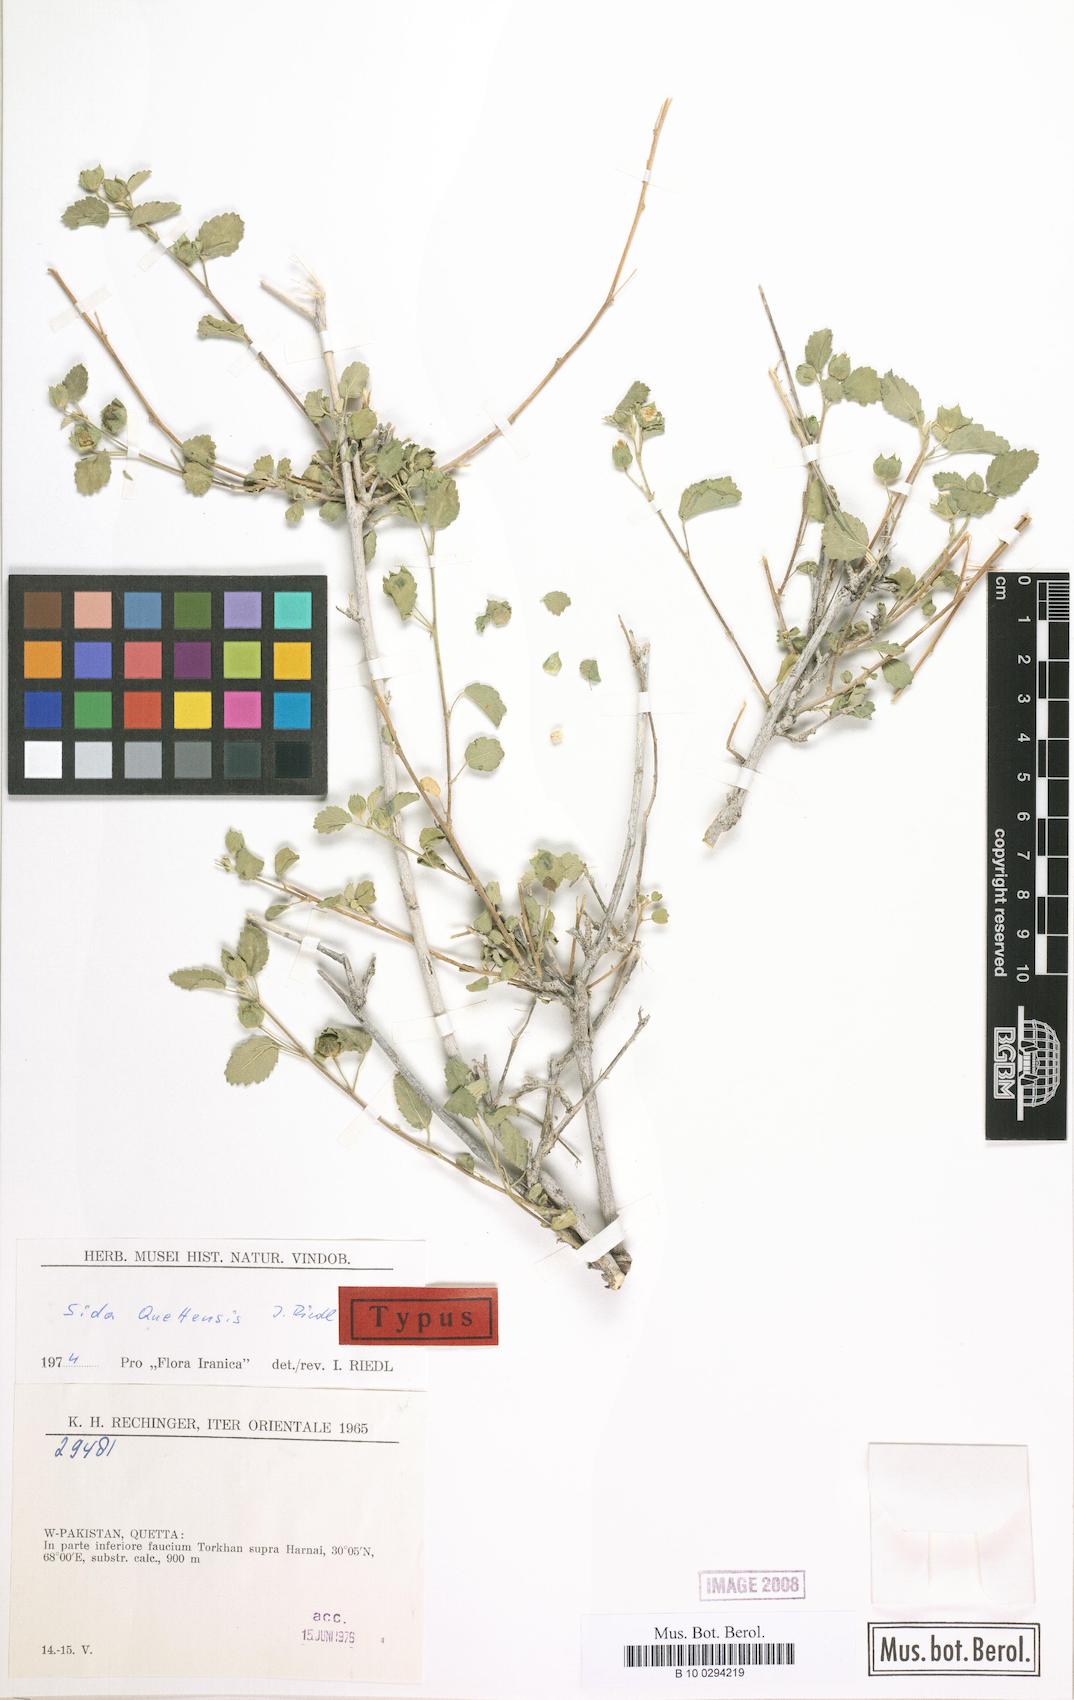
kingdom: Plantae
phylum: Tracheophyta
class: Magnoliopsida
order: Malvales
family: Malvaceae
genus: Sida
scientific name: Sida quettensis
